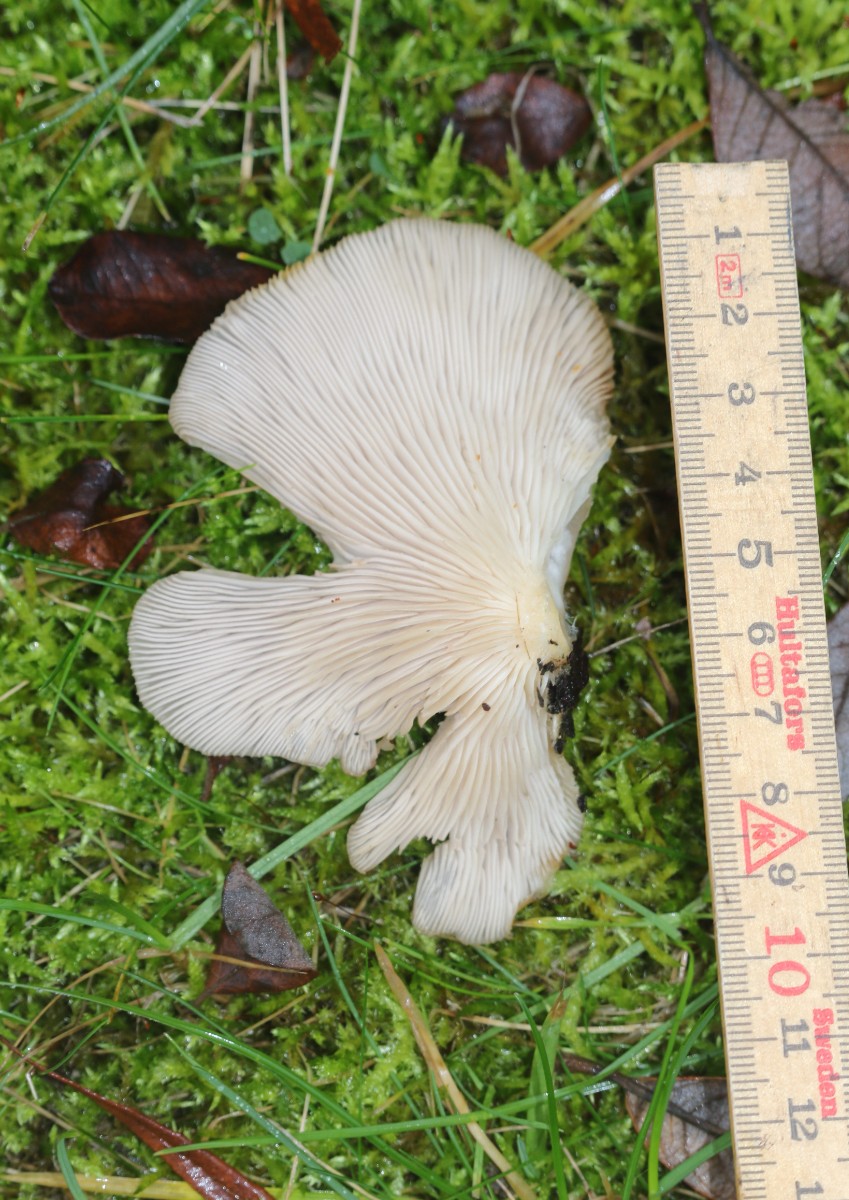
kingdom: Fungi
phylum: Basidiomycota
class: Agaricomycetes
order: Agaricales
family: Pleurotaceae
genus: Pleurotus
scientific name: Pleurotus
